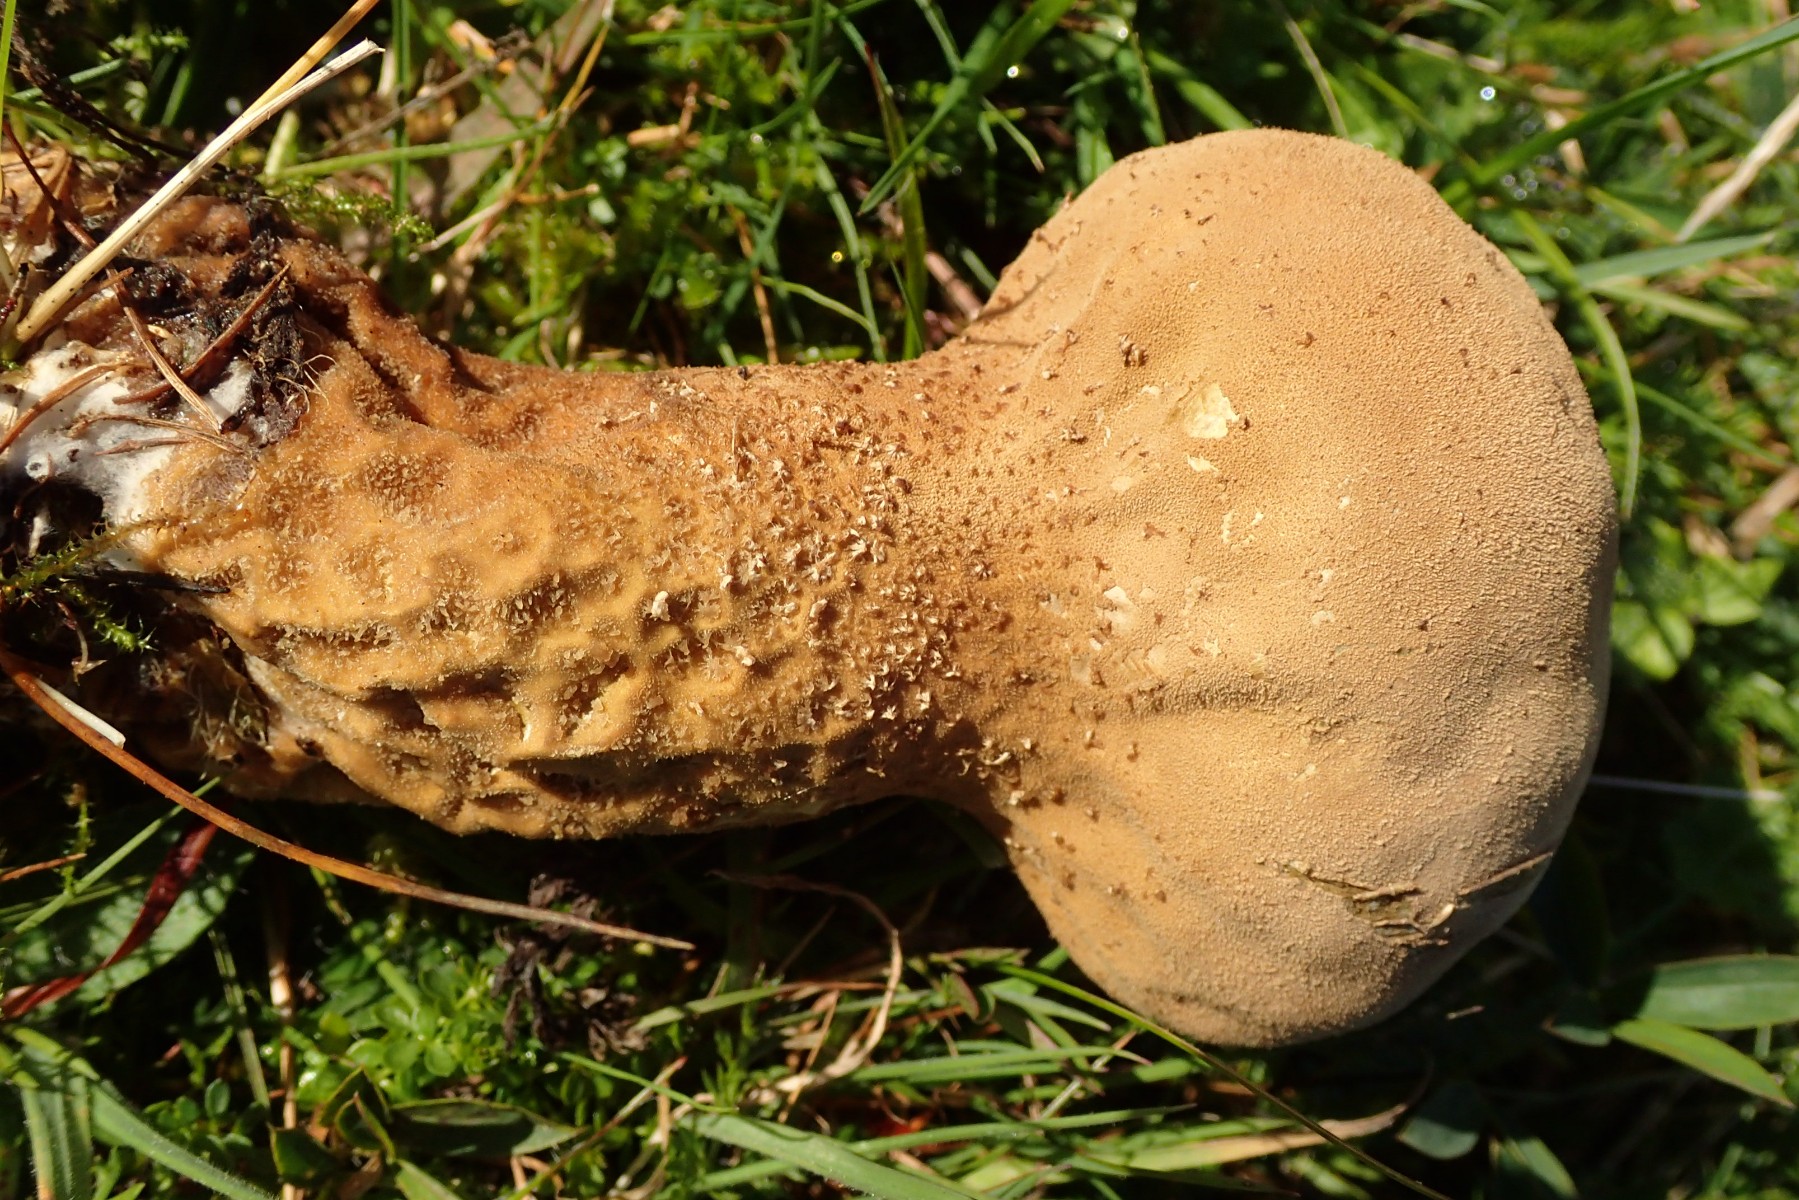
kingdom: Fungi
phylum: Basidiomycota
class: Agaricomycetes
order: Agaricales
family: Lycoperdaceae
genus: Lycoperdon
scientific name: Lycoperdon excipuliforme
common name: højstokket støvbold
